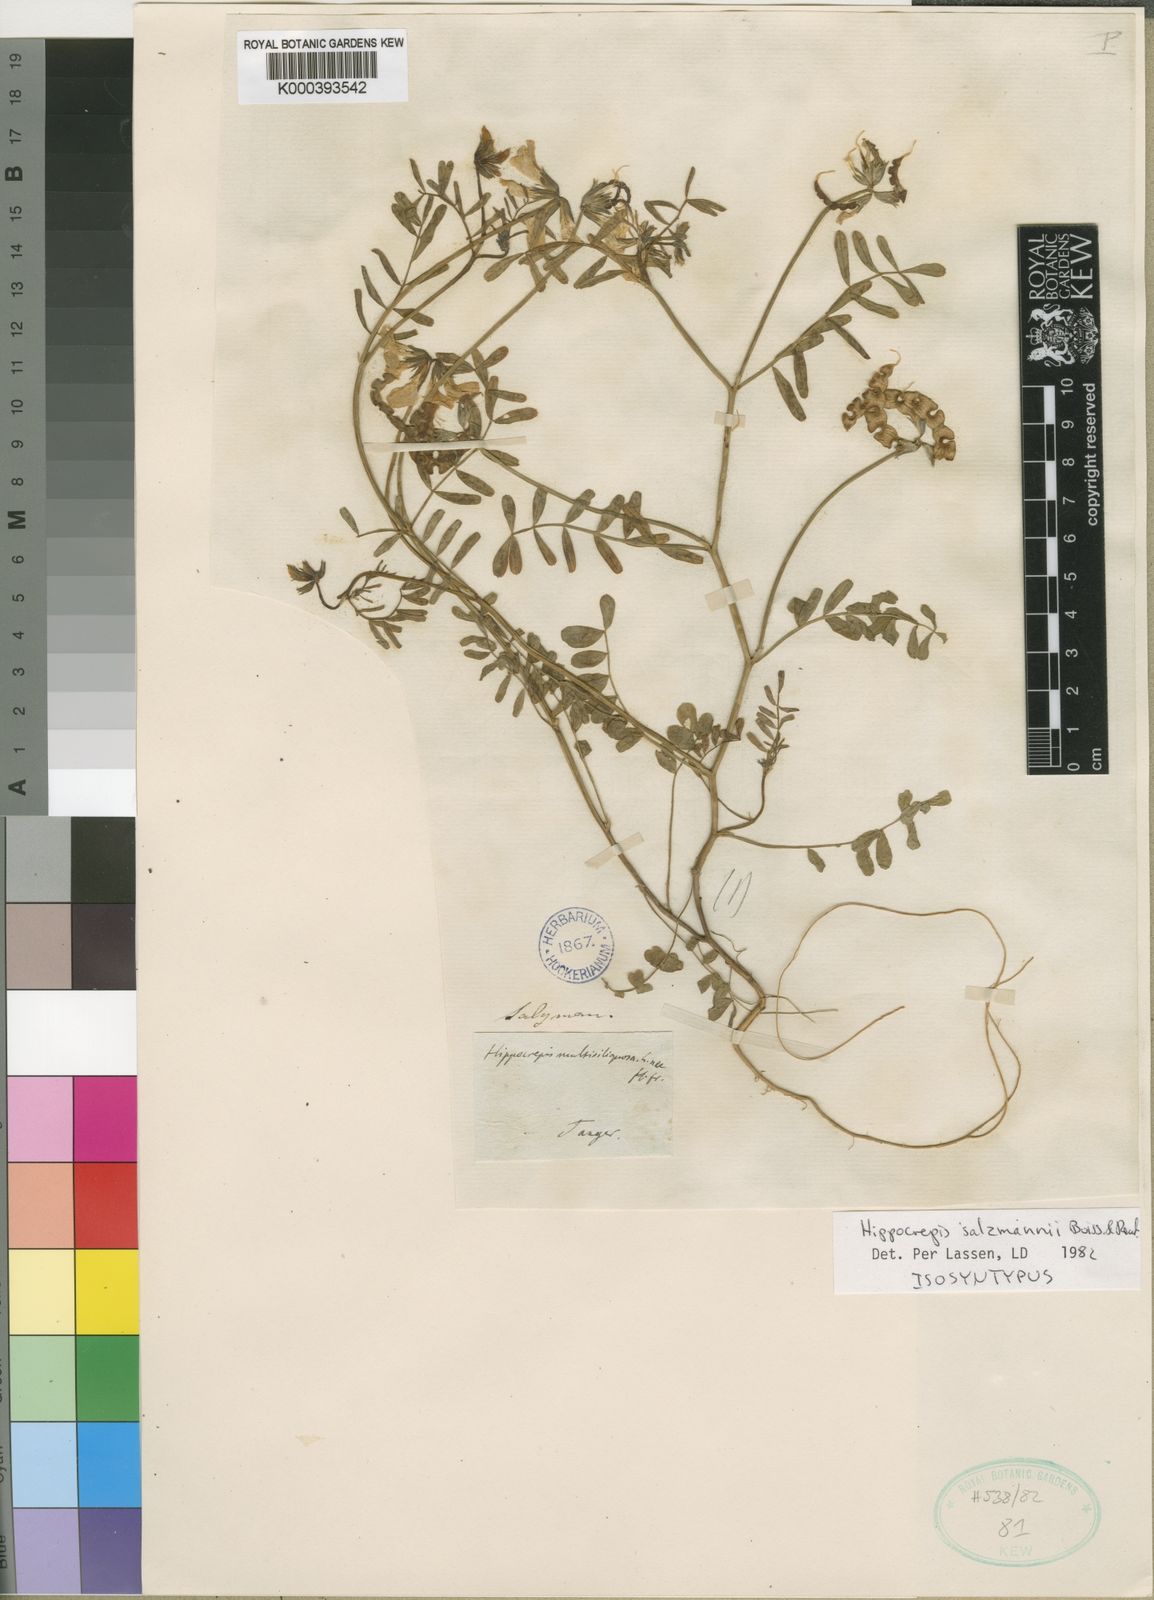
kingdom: Plantae
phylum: Tracheophyta
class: Magnoliopsida
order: Fabales
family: Fabaceae
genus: Hippocrepis
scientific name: Hippocrepis salzmannii
